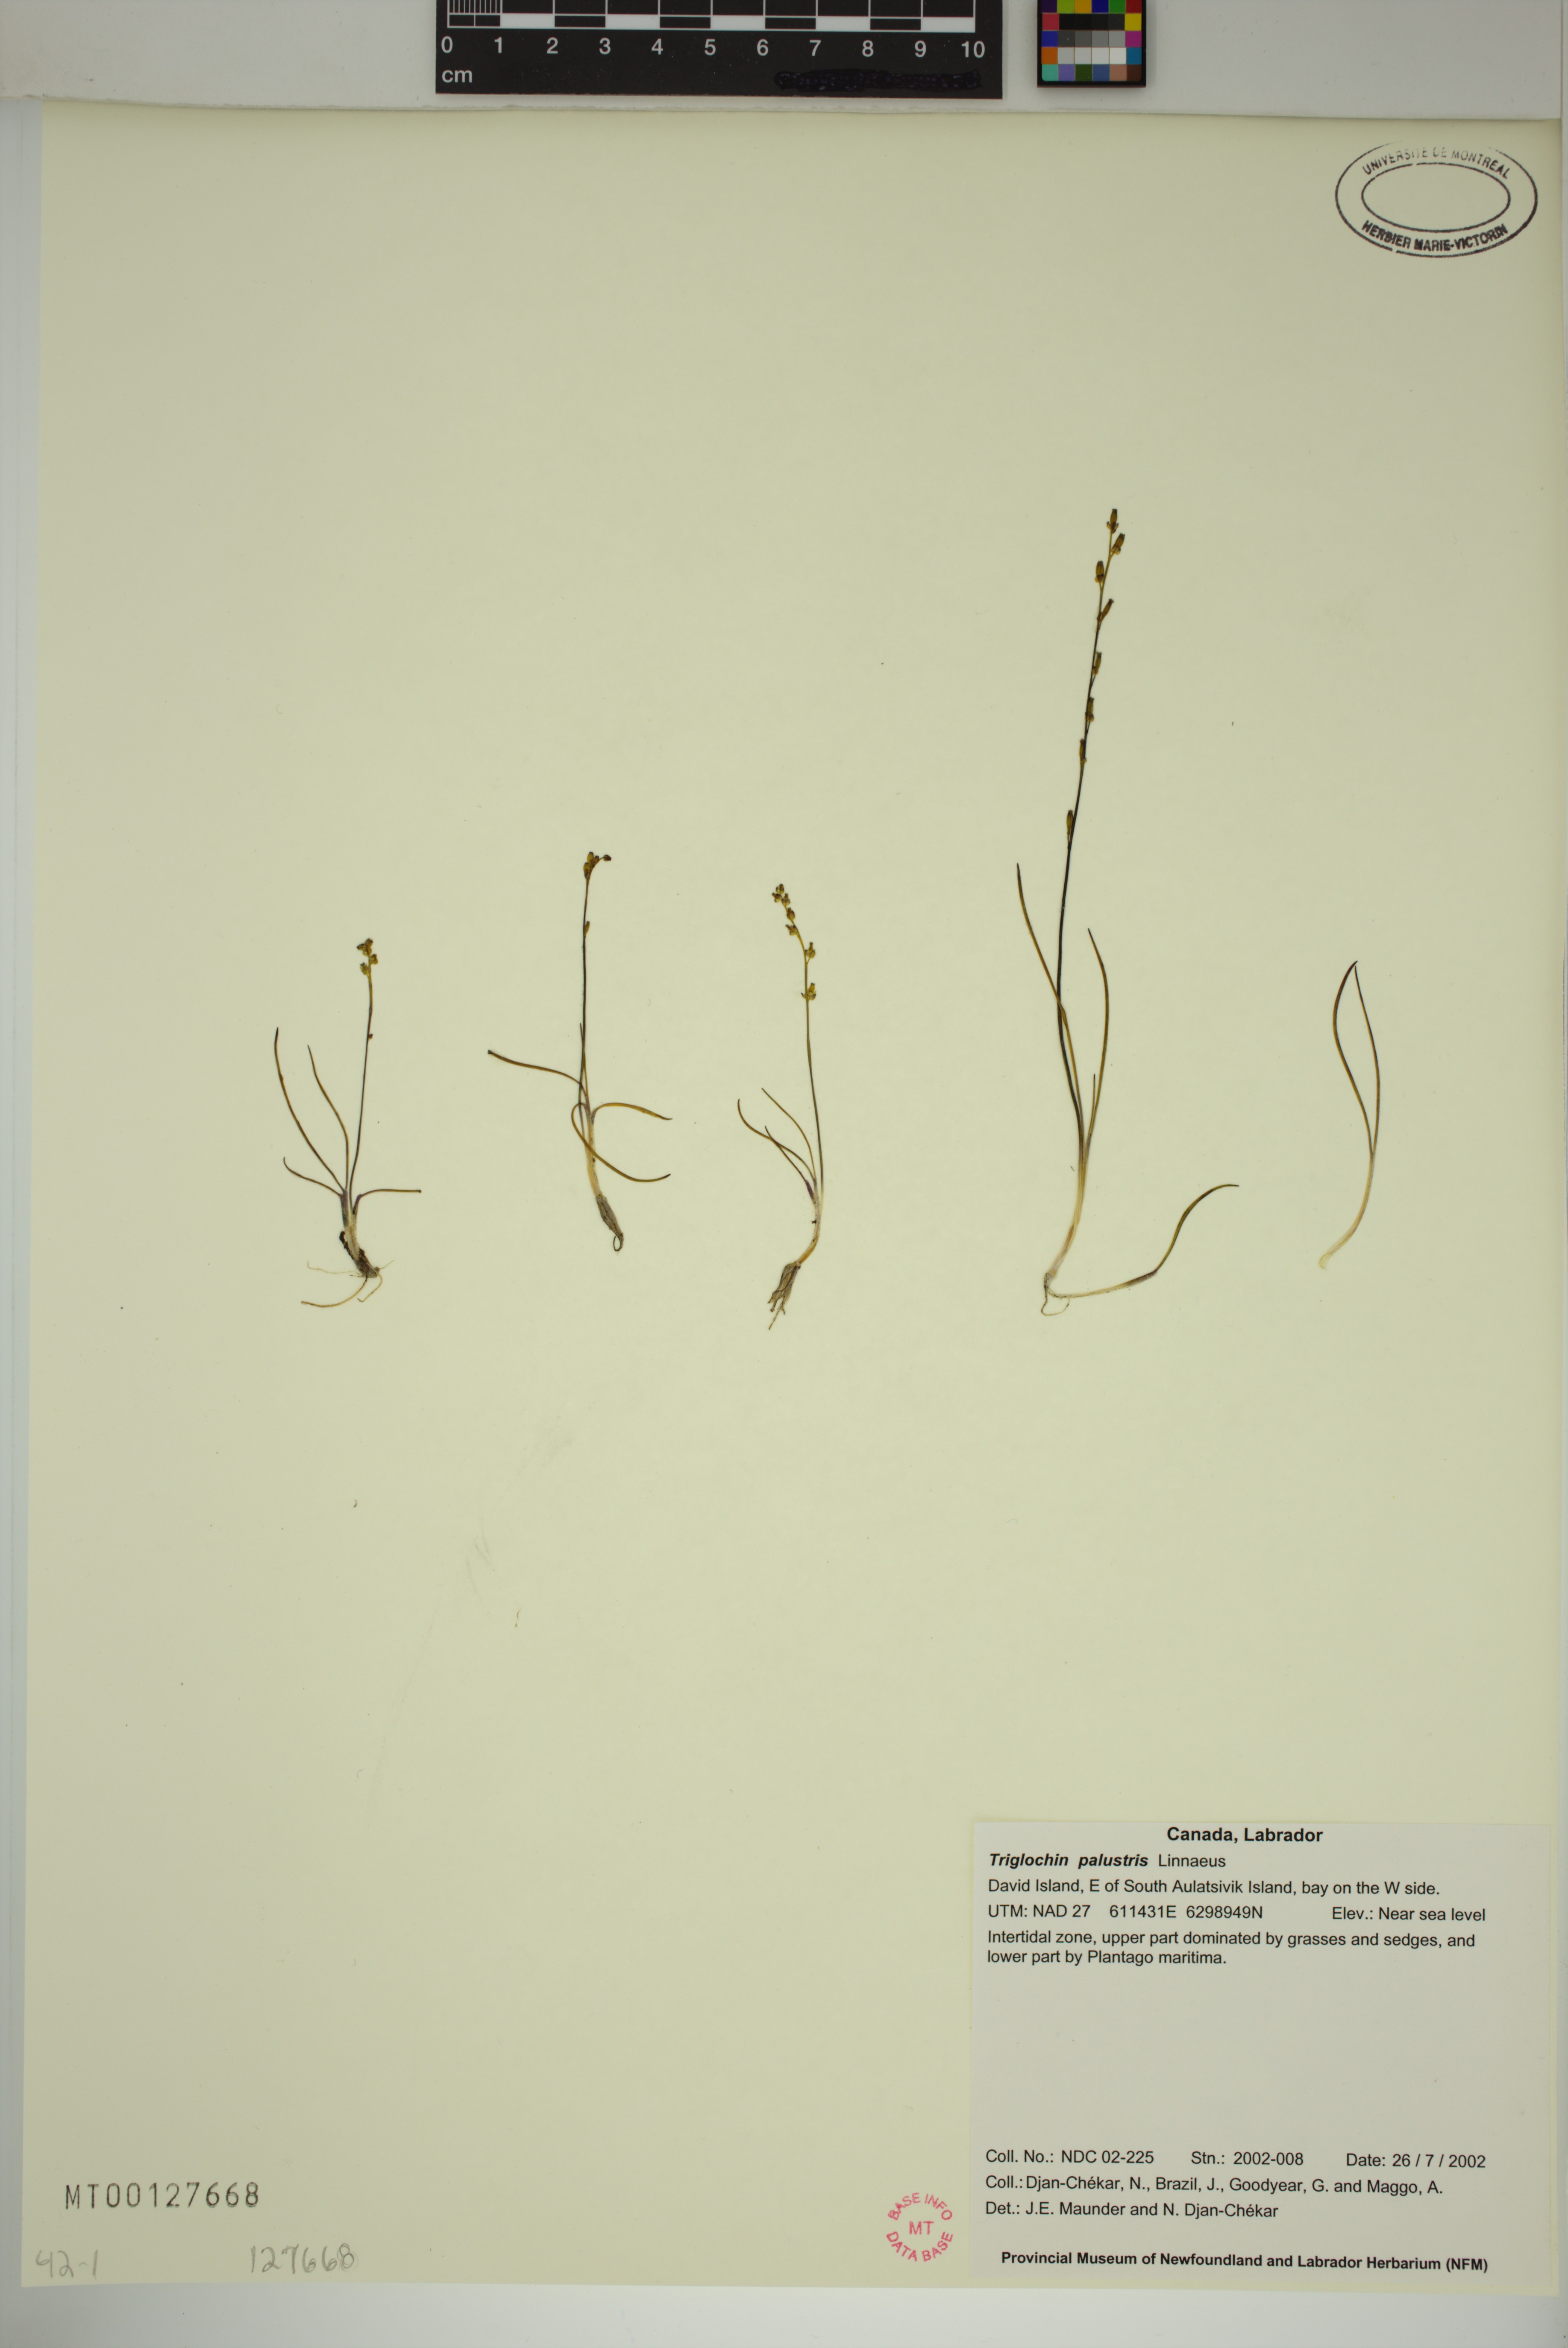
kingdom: Plantae
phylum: Tracheophyta
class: Liliopsida
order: Alismatales
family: Juncaginaceae
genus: Triglochin
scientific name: Triglochin palustris
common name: Marsh arrowgrass
